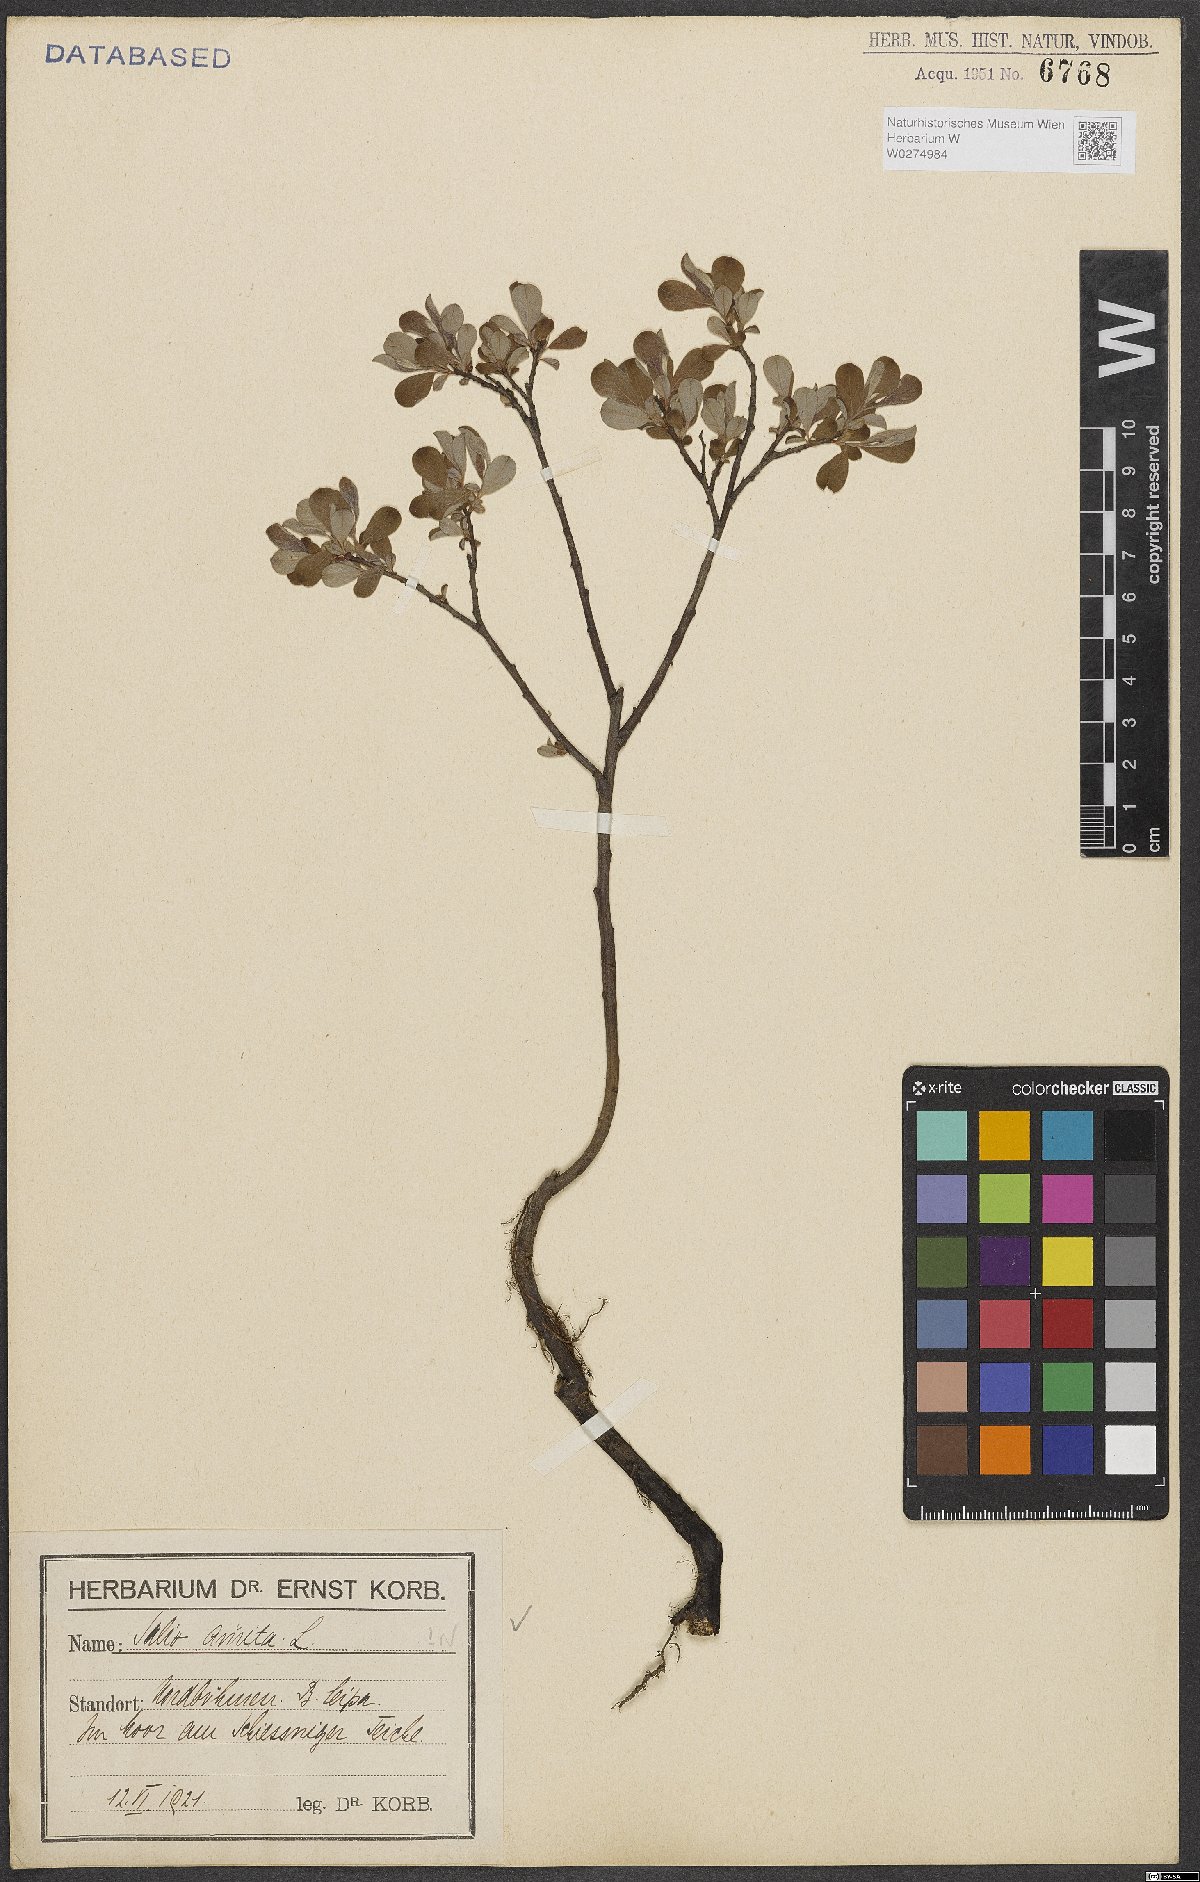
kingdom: Plantae
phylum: Tracheophyta
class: Magnoliopsida
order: Malpighiales
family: Salicaceae
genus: Salix
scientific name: Salix aurita
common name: Eared willow
